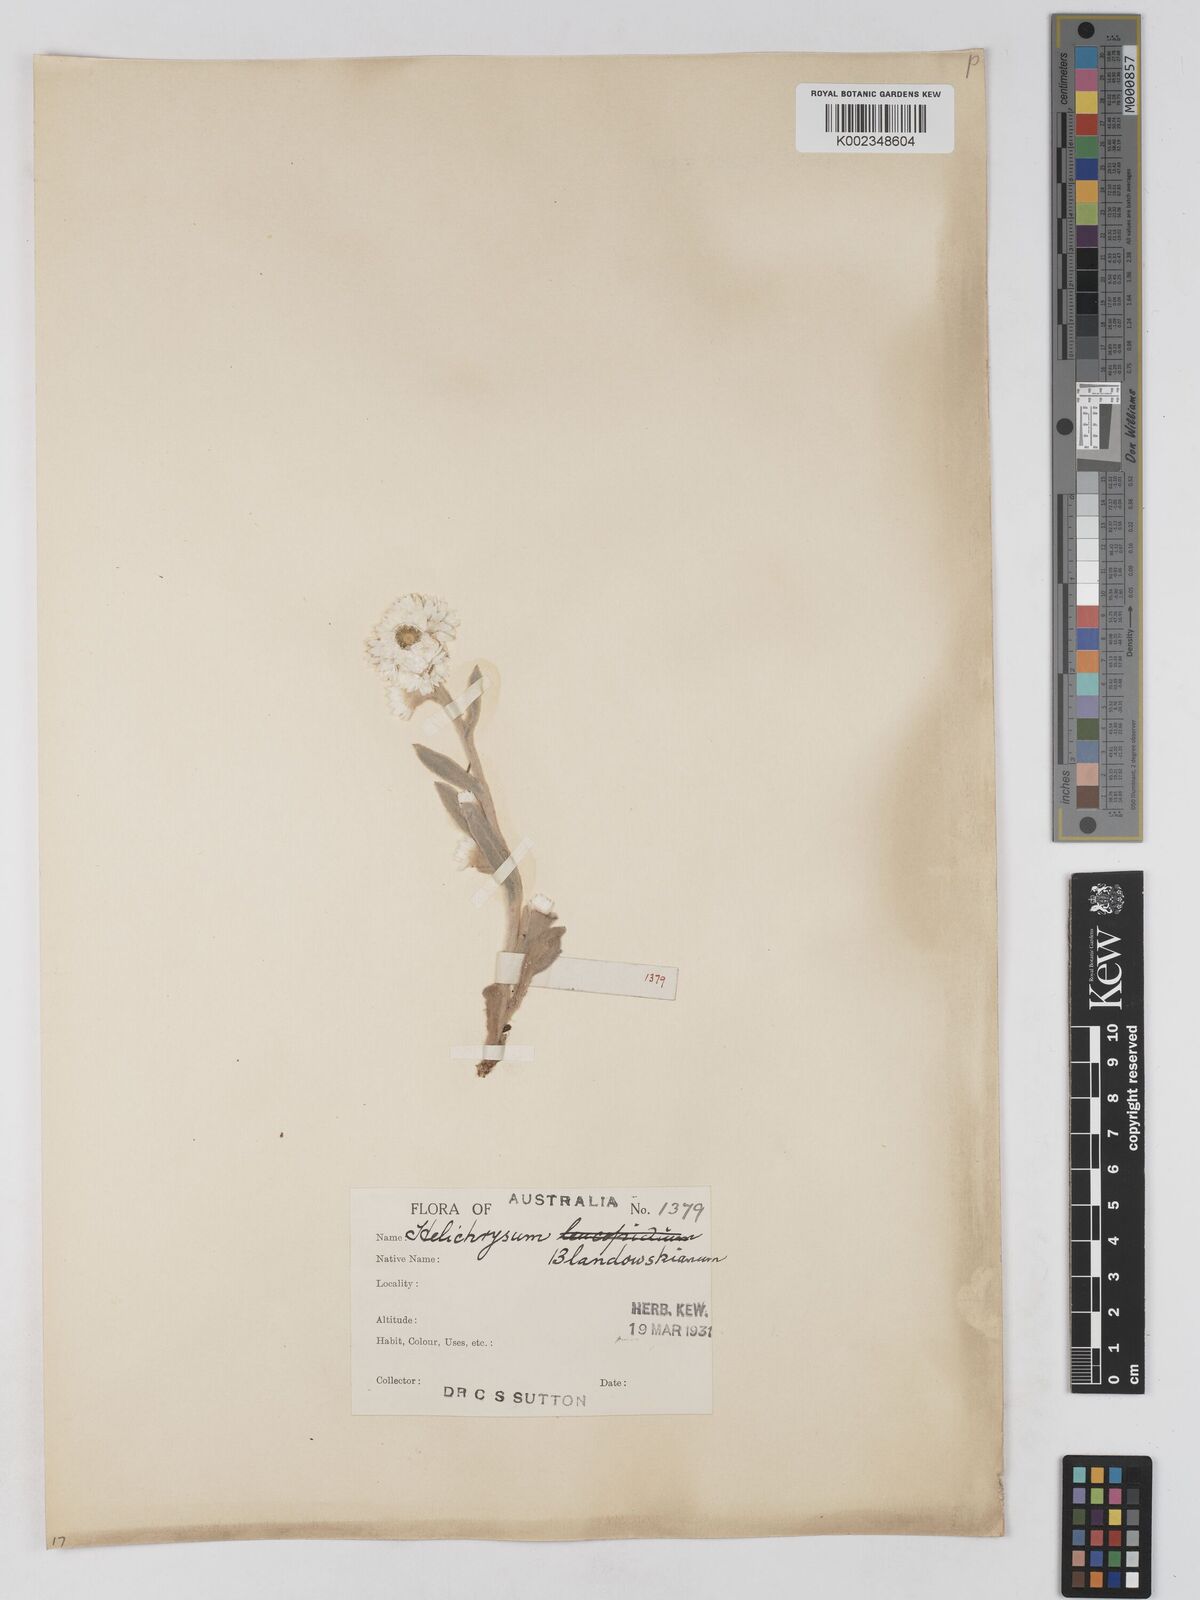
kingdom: Plantae
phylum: Tracheophyta
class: Magnoliopsida
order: Asterales
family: Asteraceae
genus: Argentipallium
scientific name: Argentipallium blandowskianum
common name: Woolly everlasting
